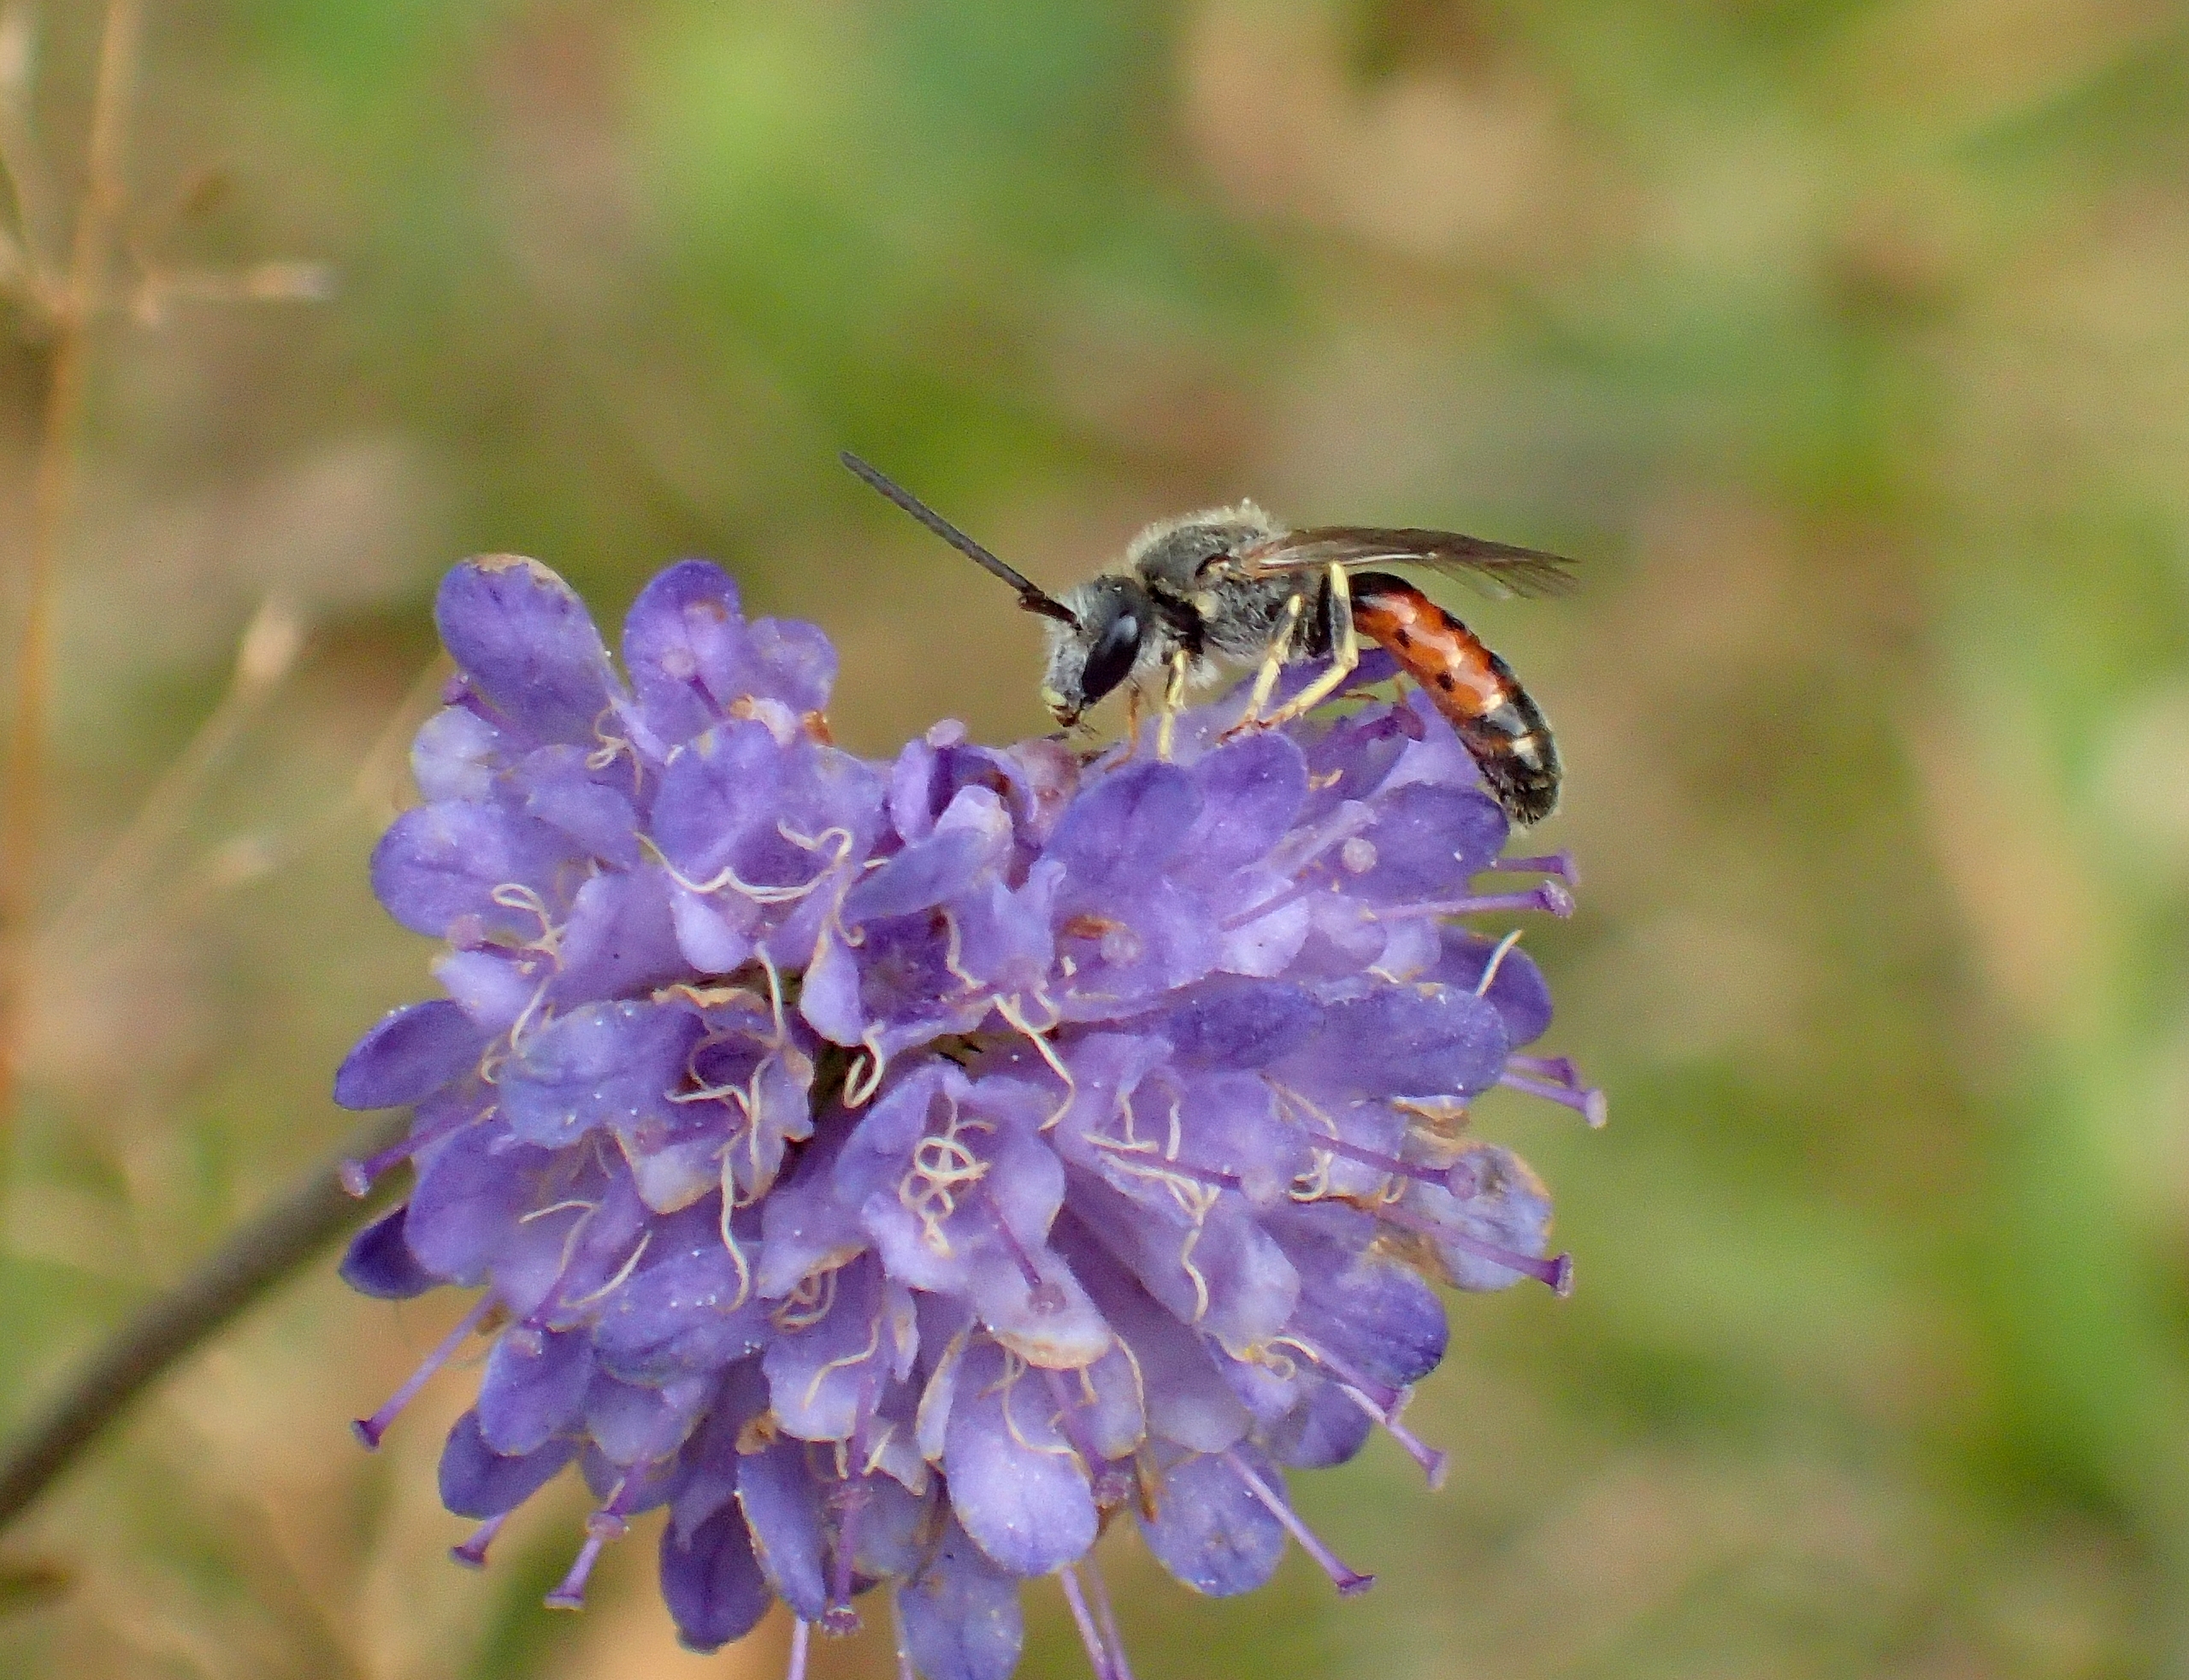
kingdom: Plantae
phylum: Tracheophyta
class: Magnoliopsida
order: Dipsacales
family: Caprifoliaceae
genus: Succisa
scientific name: Succisa pratensis
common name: Djævelsbid
